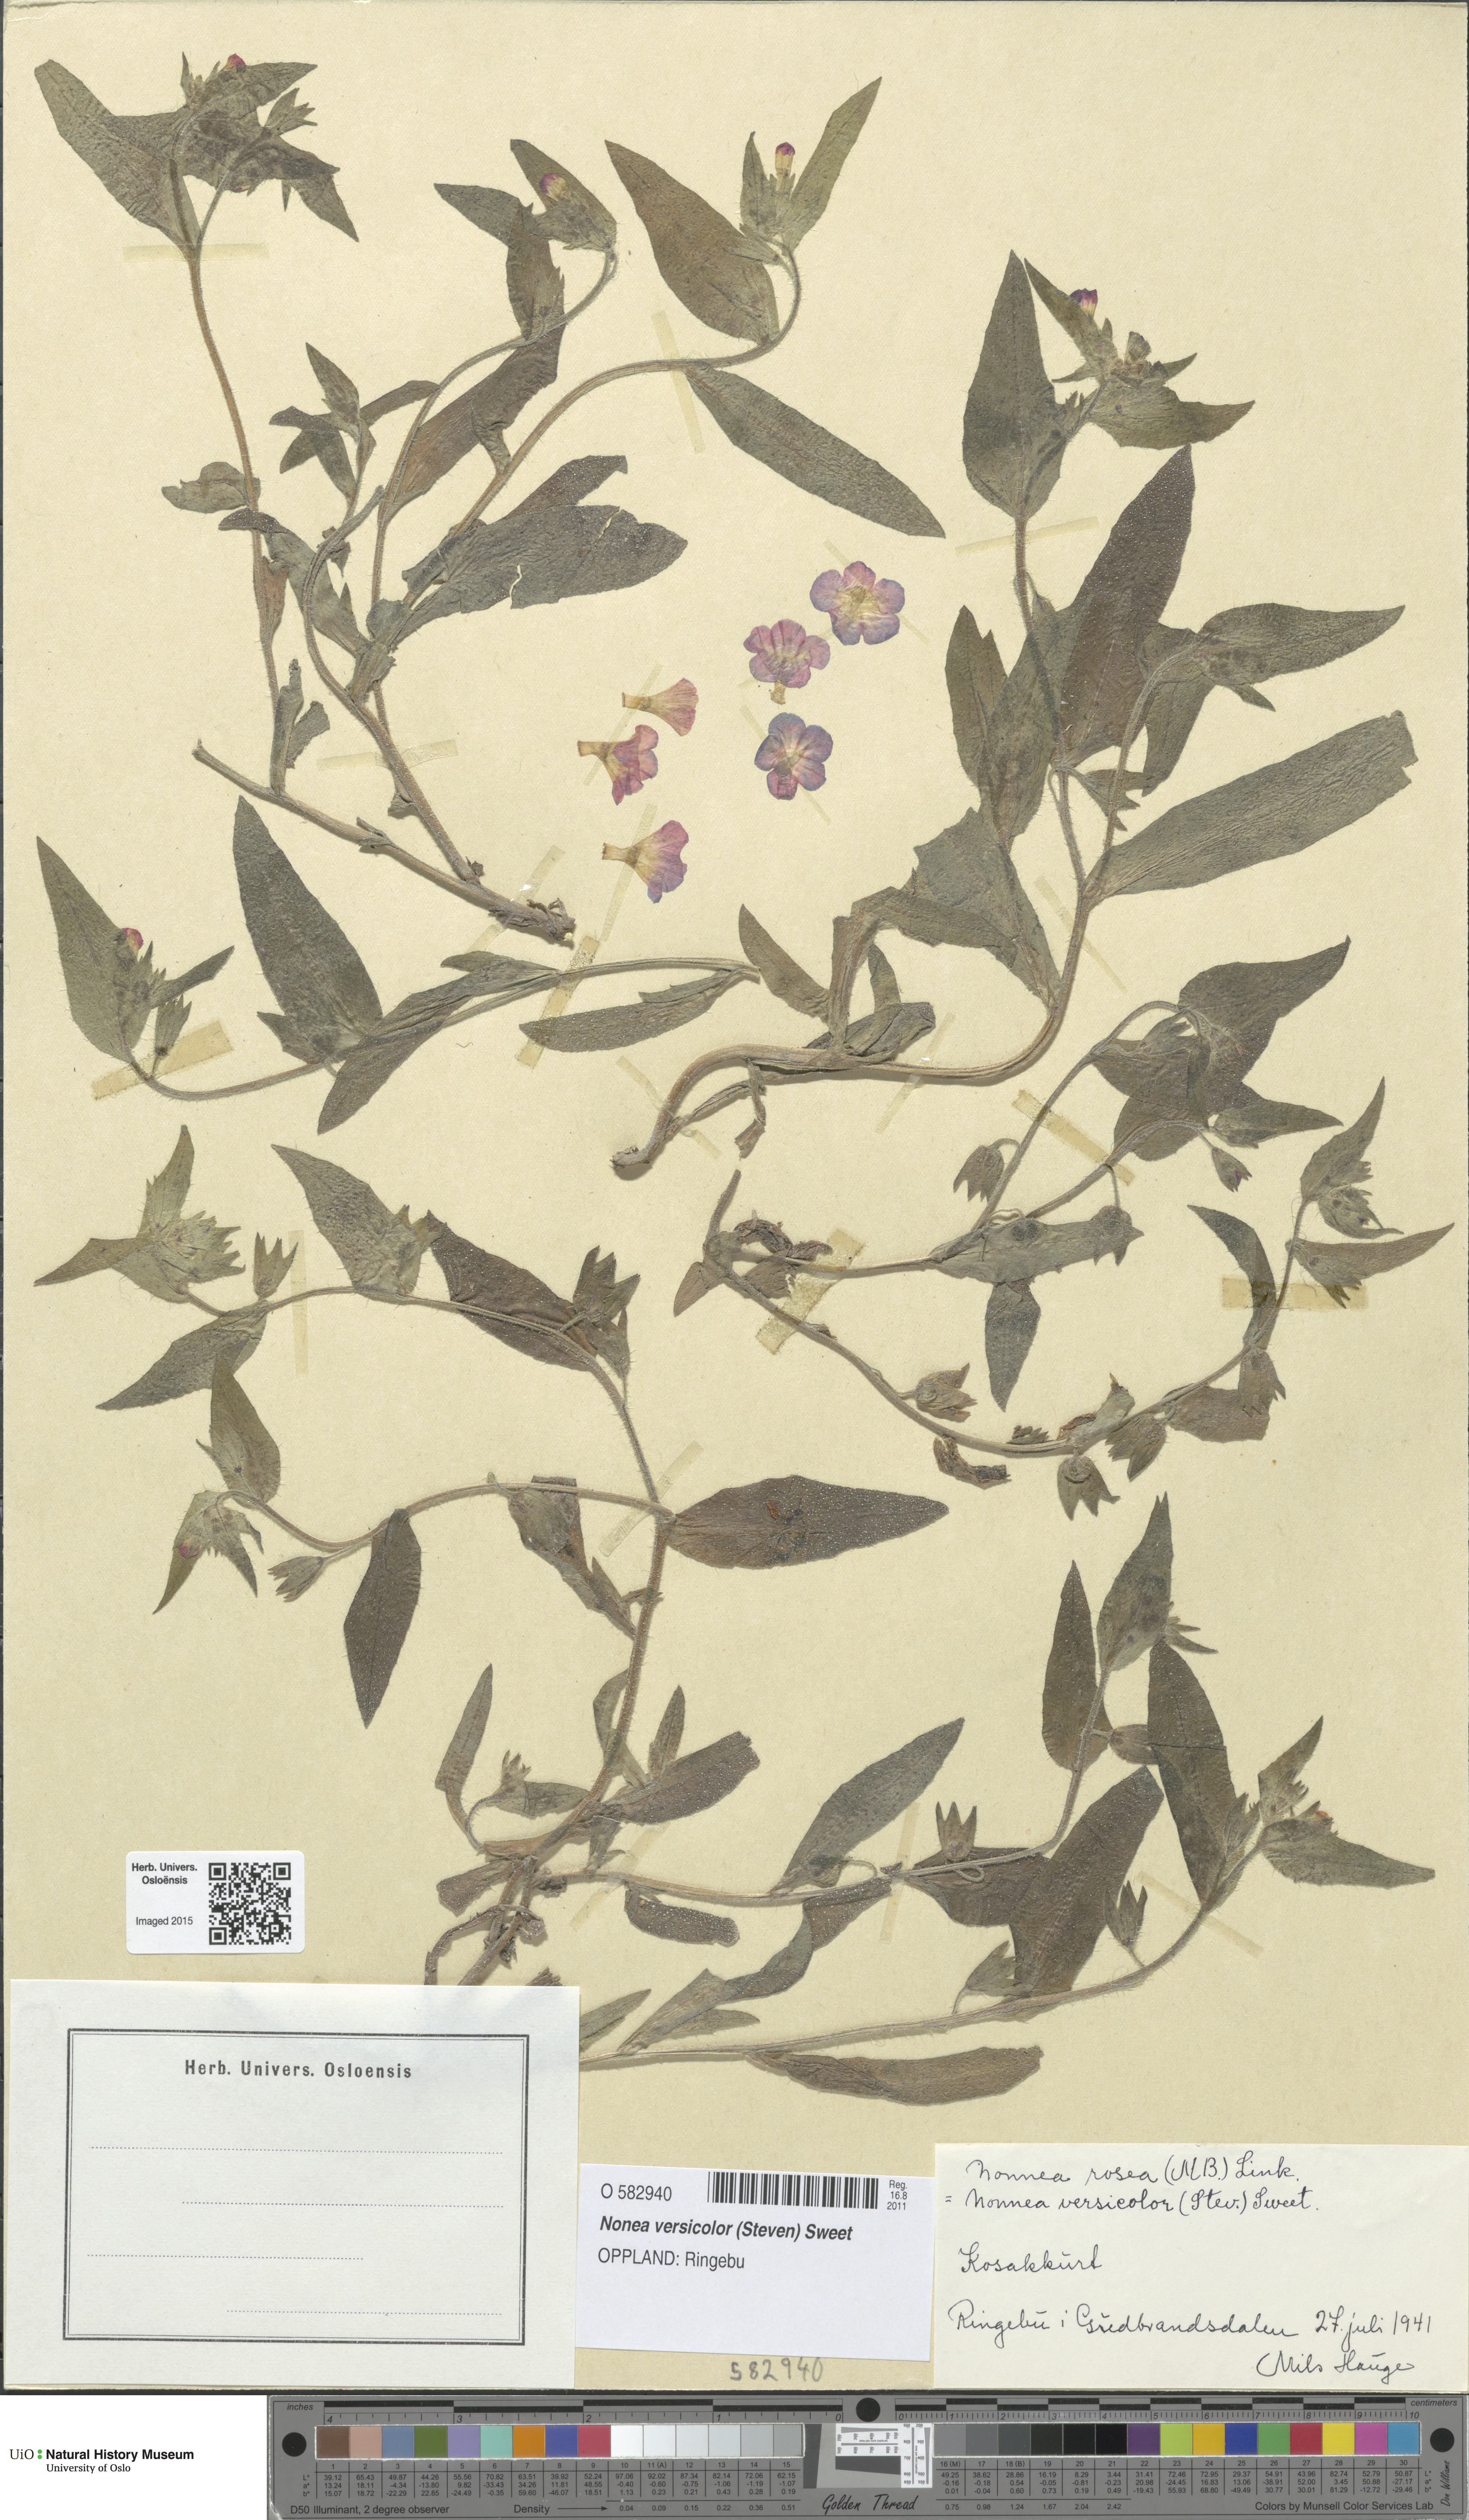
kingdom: Plantae
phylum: Tracheophyta
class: Magnoliopsida
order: Boraginales
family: Boraginaceae
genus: Nonea
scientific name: Nonea versicolor
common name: Varied monkswort
